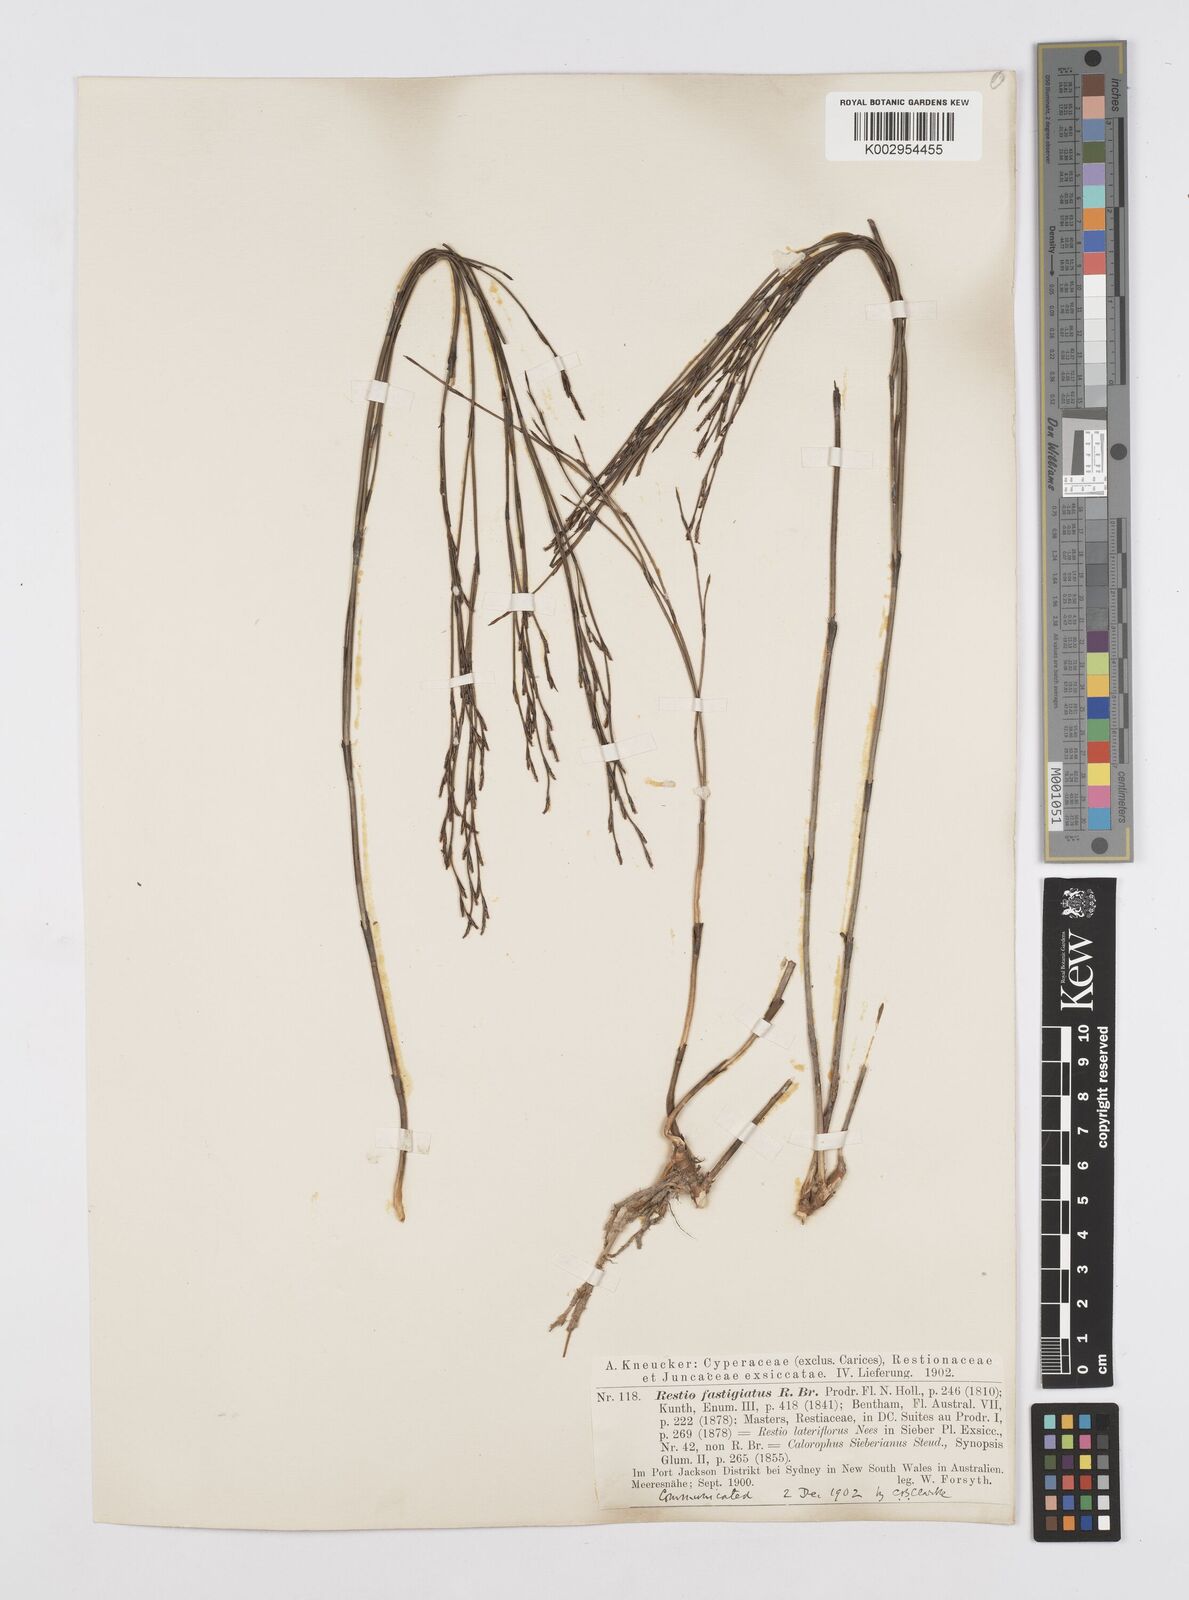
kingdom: Plantae
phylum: Tracheophyta
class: Liliopsida
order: Poales
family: Restionaceae
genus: Chordifex
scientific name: Chordifex fastigiatus
